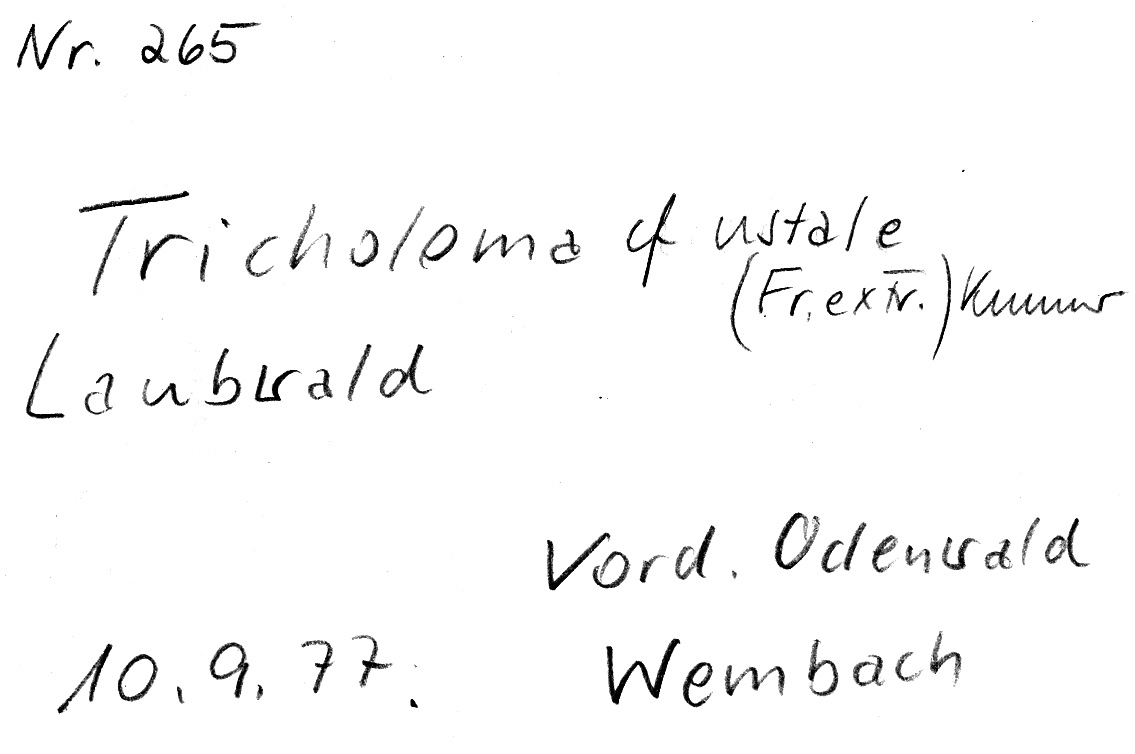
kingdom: Fungi
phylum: Basidiomycota
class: Agaricomycetes
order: Agaricales
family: Tricholomataceae
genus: Tricholoma
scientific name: Tricholoma ustale
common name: Burnt knight
